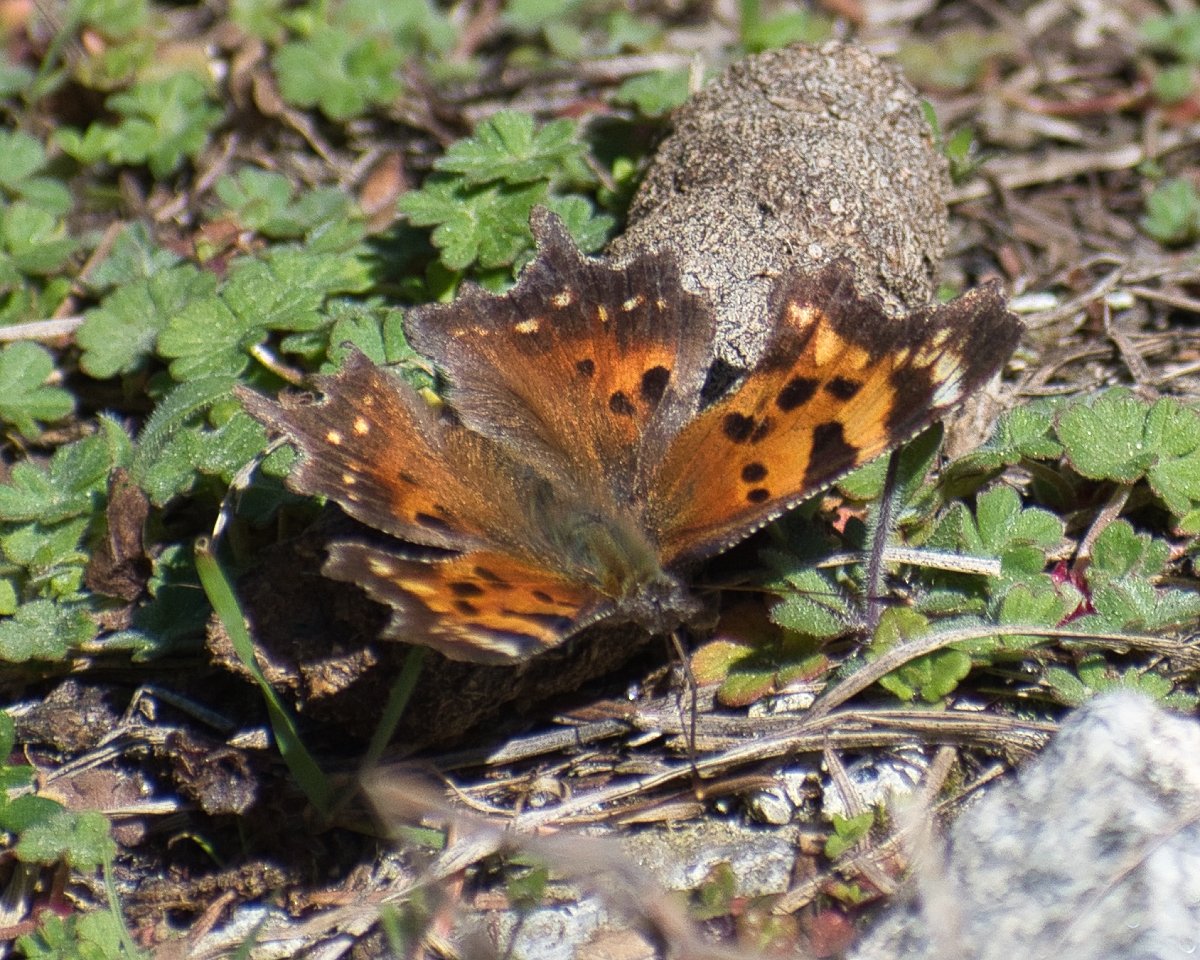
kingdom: Animalia
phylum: Arthropoda
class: Insecta
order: Lepidoptera
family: Nymphalidae
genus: Polygonia
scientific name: Polygonia faunus
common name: Green Comma
